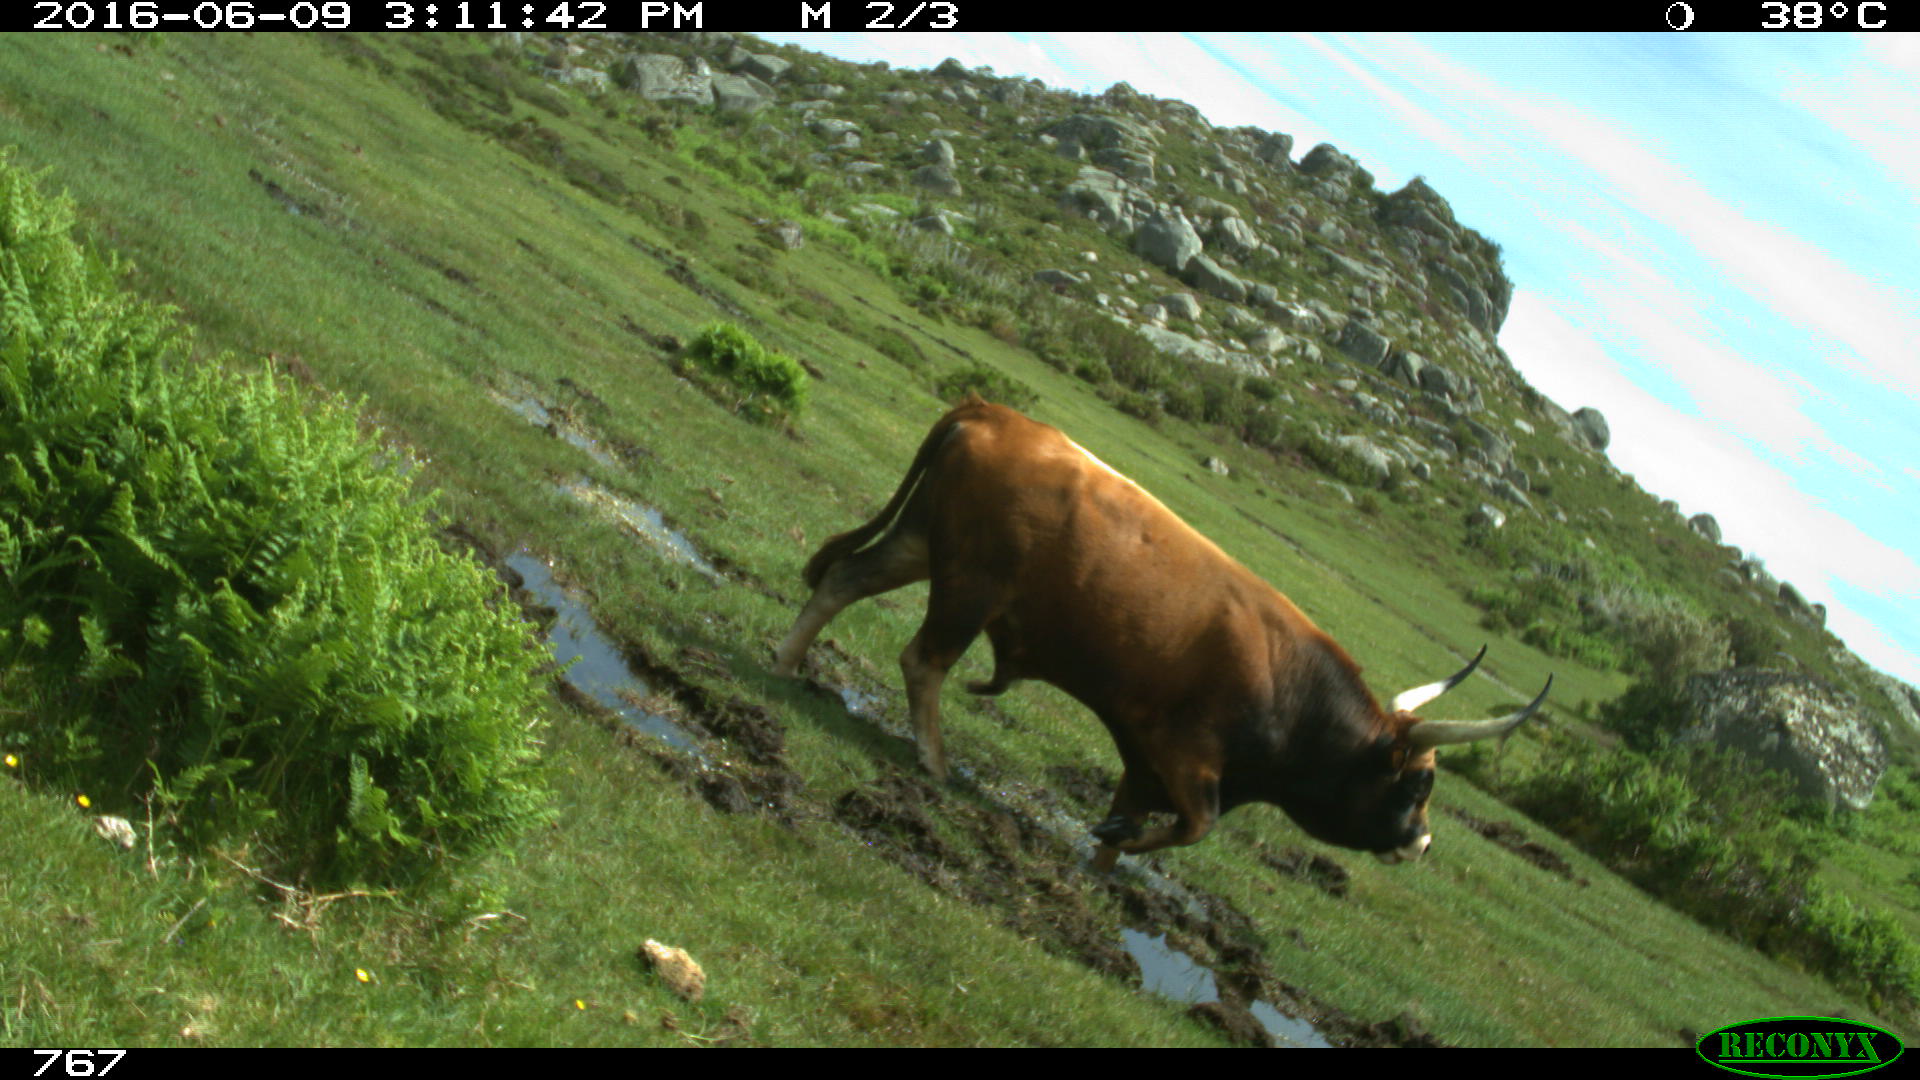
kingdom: Animalia
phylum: Chordata
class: Mammalia
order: Artiodactyla
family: Bovidae
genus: Bos
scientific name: Bos taurus
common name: Domesticated cattle
